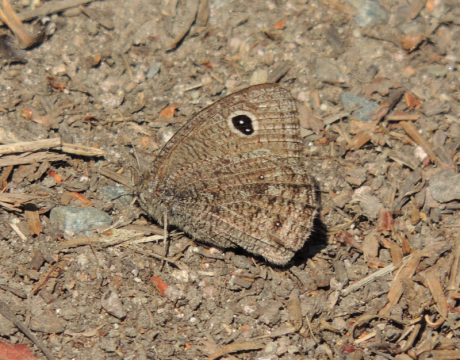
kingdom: Animalia
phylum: Arthropoda
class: Insecta
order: Lepidoptera
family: Nymphalidae
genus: Cercyonis
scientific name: Cercyonis oetus
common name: Small Wood-Nymph
